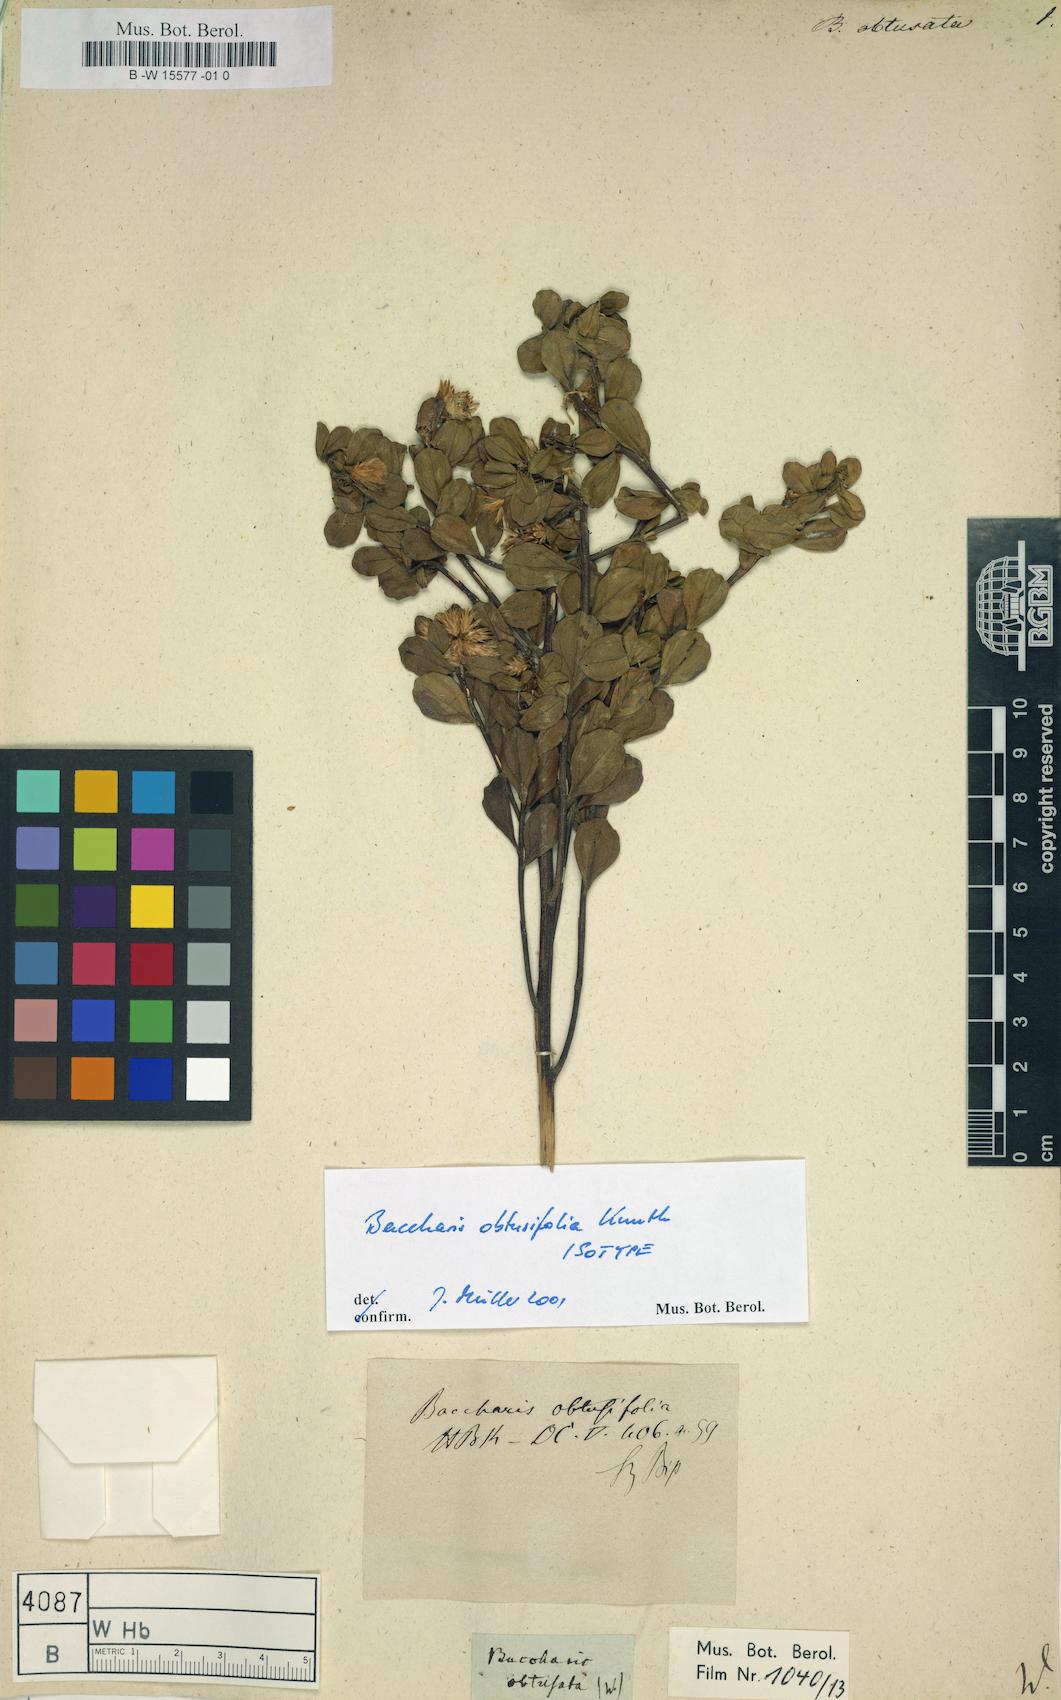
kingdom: Plantae
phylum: Tracheophyta
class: Magnoliopsida
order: Asterales
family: Asteraceae
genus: Baccharis
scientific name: Baccharis
